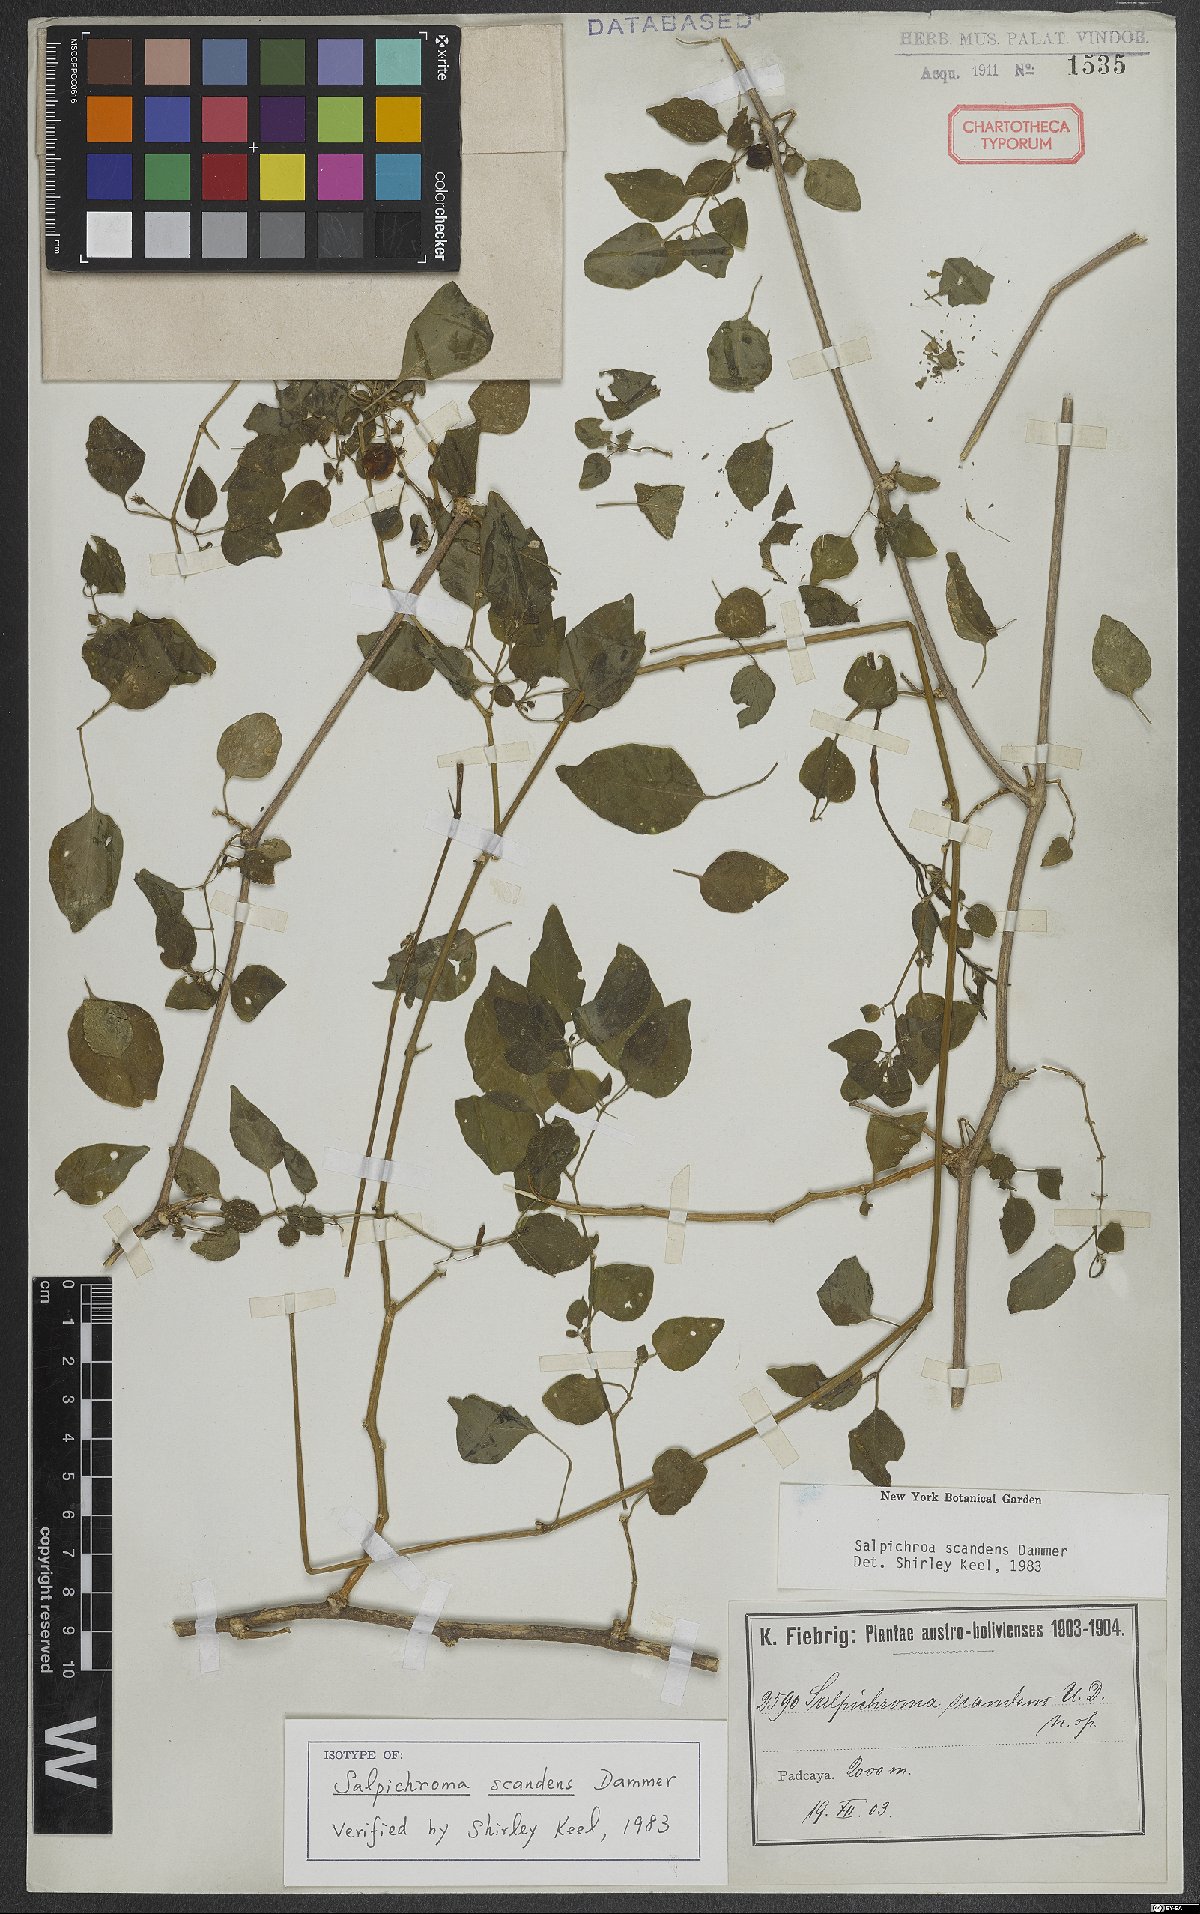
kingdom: Plantae
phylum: Tracheophyta
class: Magnoliopsida
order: Solanales
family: Solanaceae
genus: Salpichroa
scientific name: Salpichroa scandens
